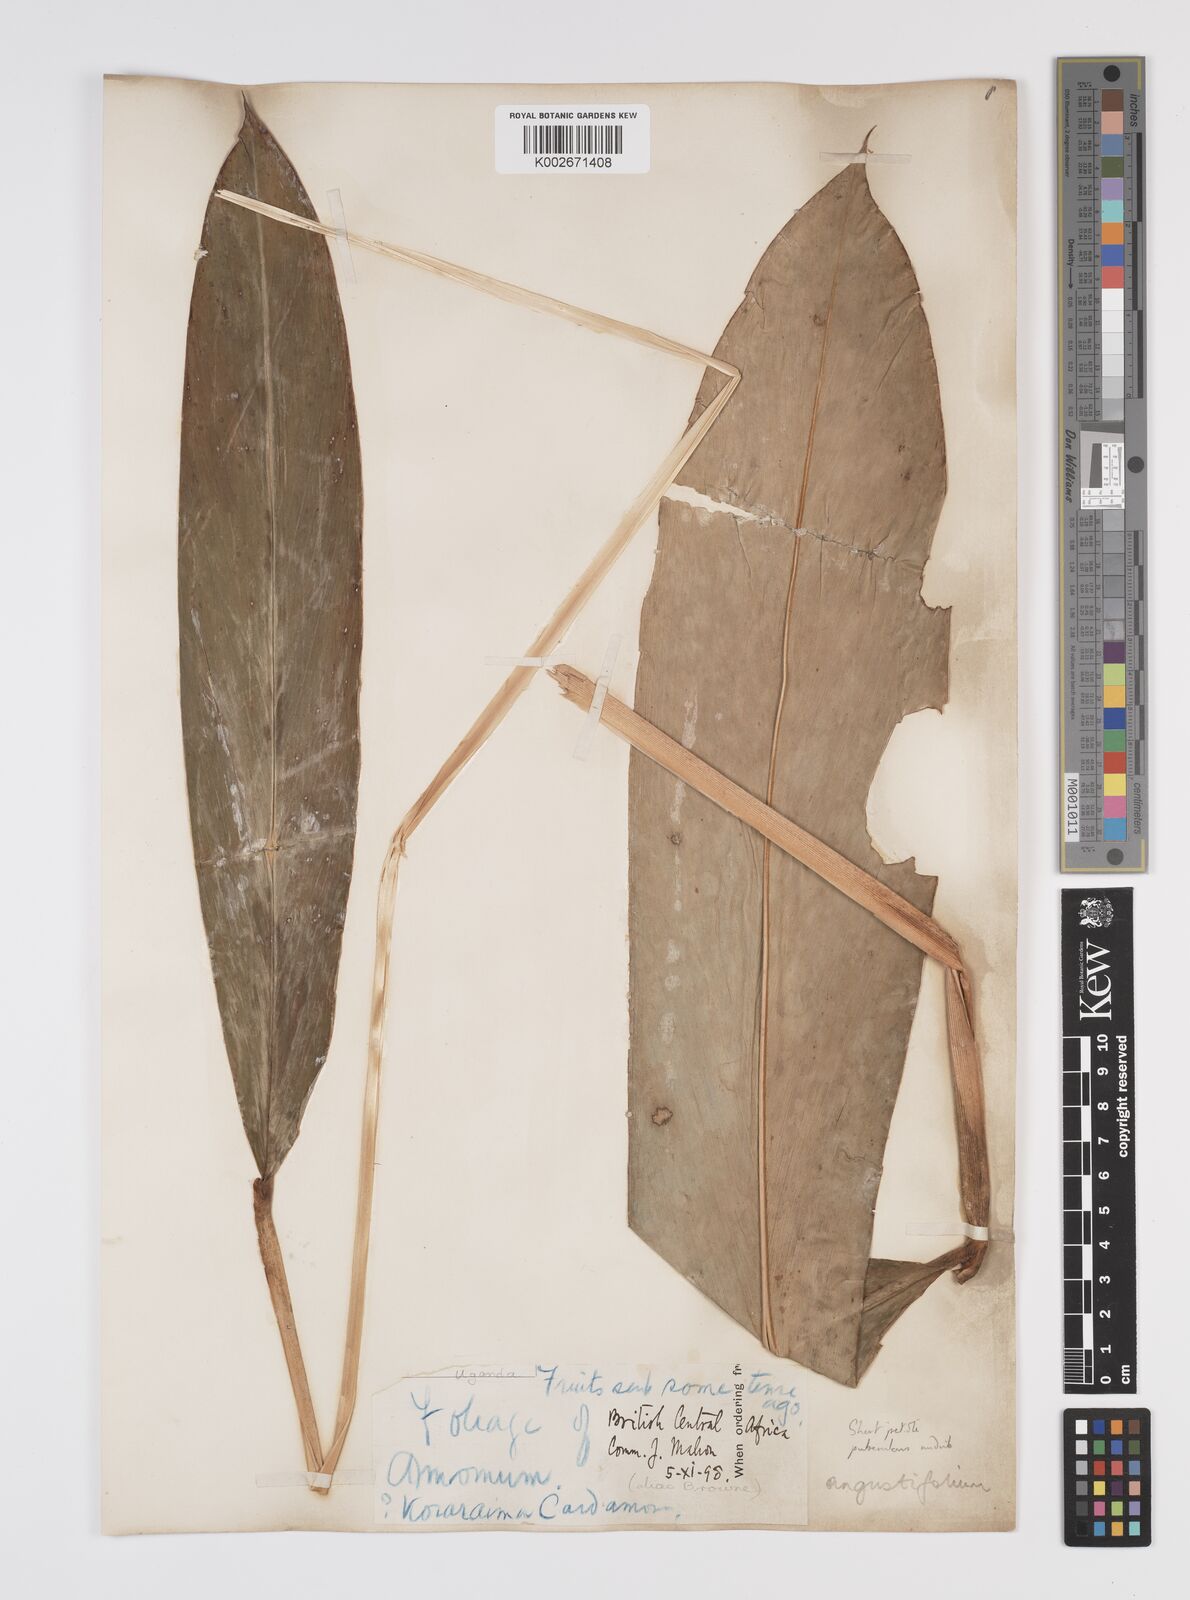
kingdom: Plantae
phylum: Tracheophyta
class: Liliopsida
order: Zingiberales
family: Zingiberaceae
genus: Aframomum
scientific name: Aframomum angustifolium
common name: Guinea grains
